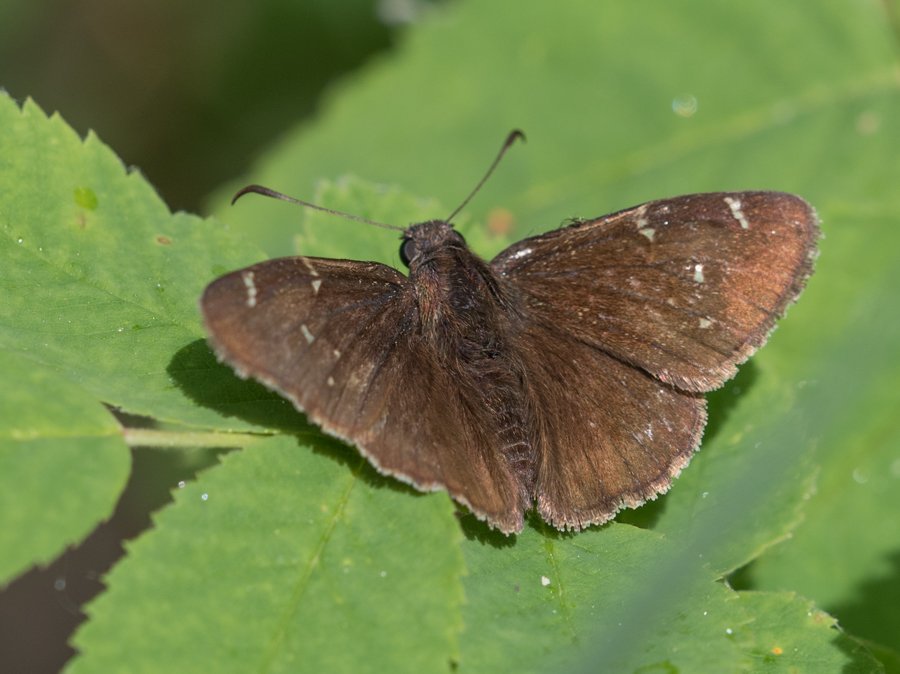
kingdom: Animalia
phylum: Arthropoda
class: Insecta
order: Lepidoptera
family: Hesperiidae
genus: Autochton
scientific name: Autochton
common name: Northern Cloudywing
